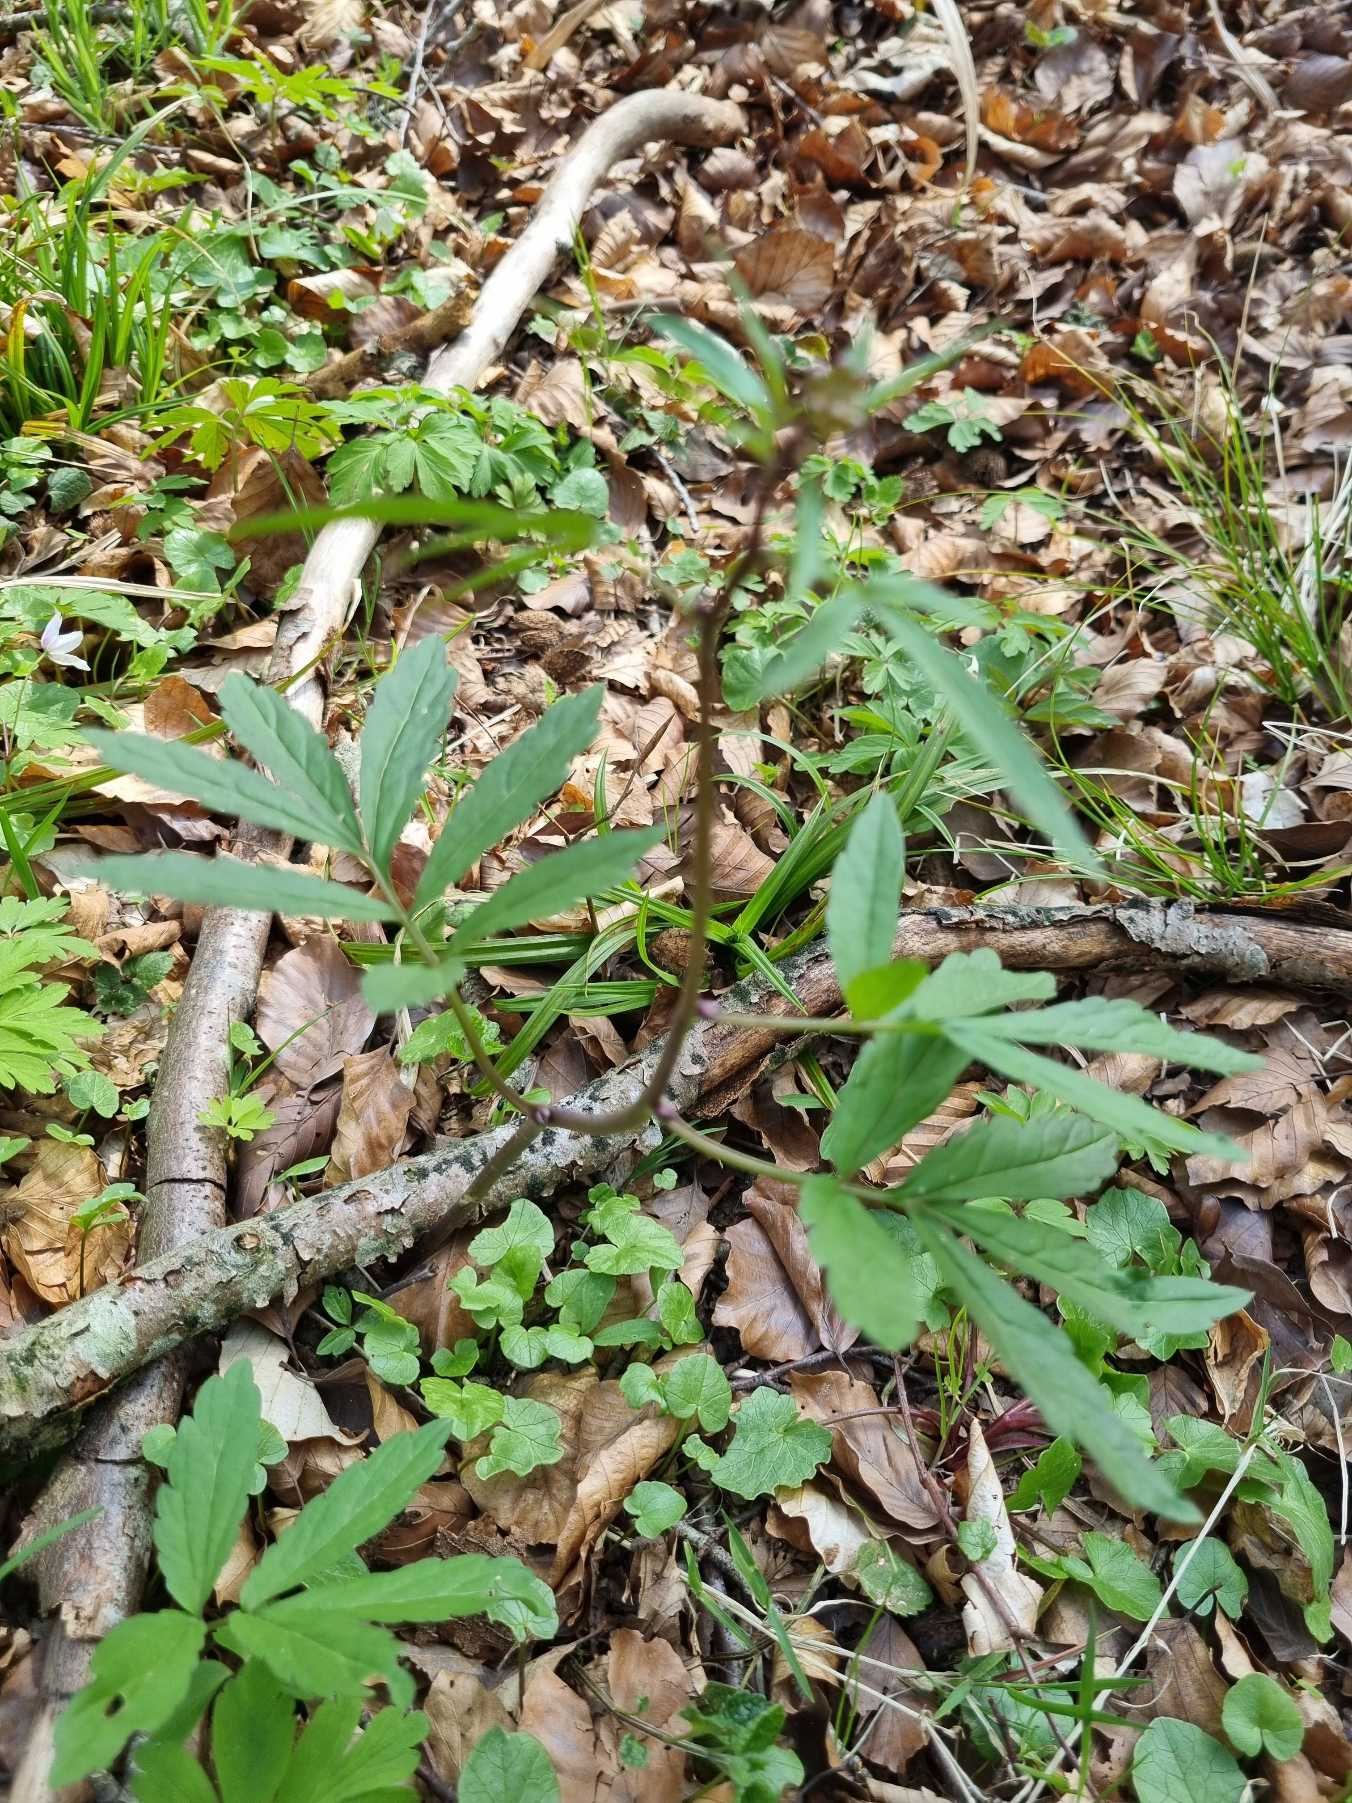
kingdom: Plantae
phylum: Tracheophyta
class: Magnoliopsida
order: Brassicales
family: Brassicaceae
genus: Cardamine
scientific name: Cardamine bulbifera
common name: Tandrod
